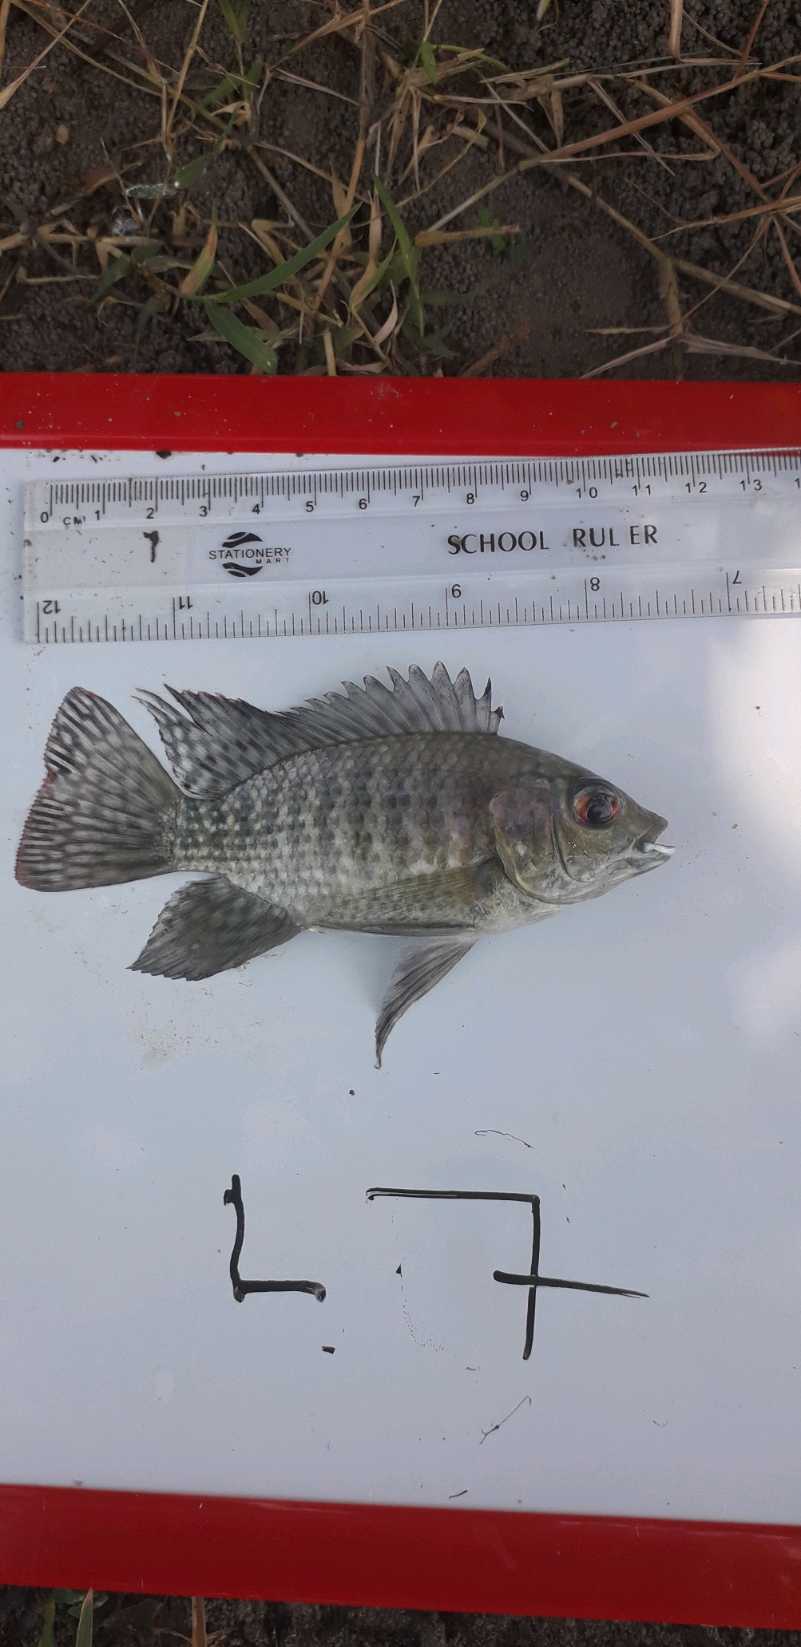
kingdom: Animalia
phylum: Chordata
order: Perciformes
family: Cichlidae
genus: Oreochromis
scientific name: Oreochromis leucostictus
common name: Blue spotted tilapia
